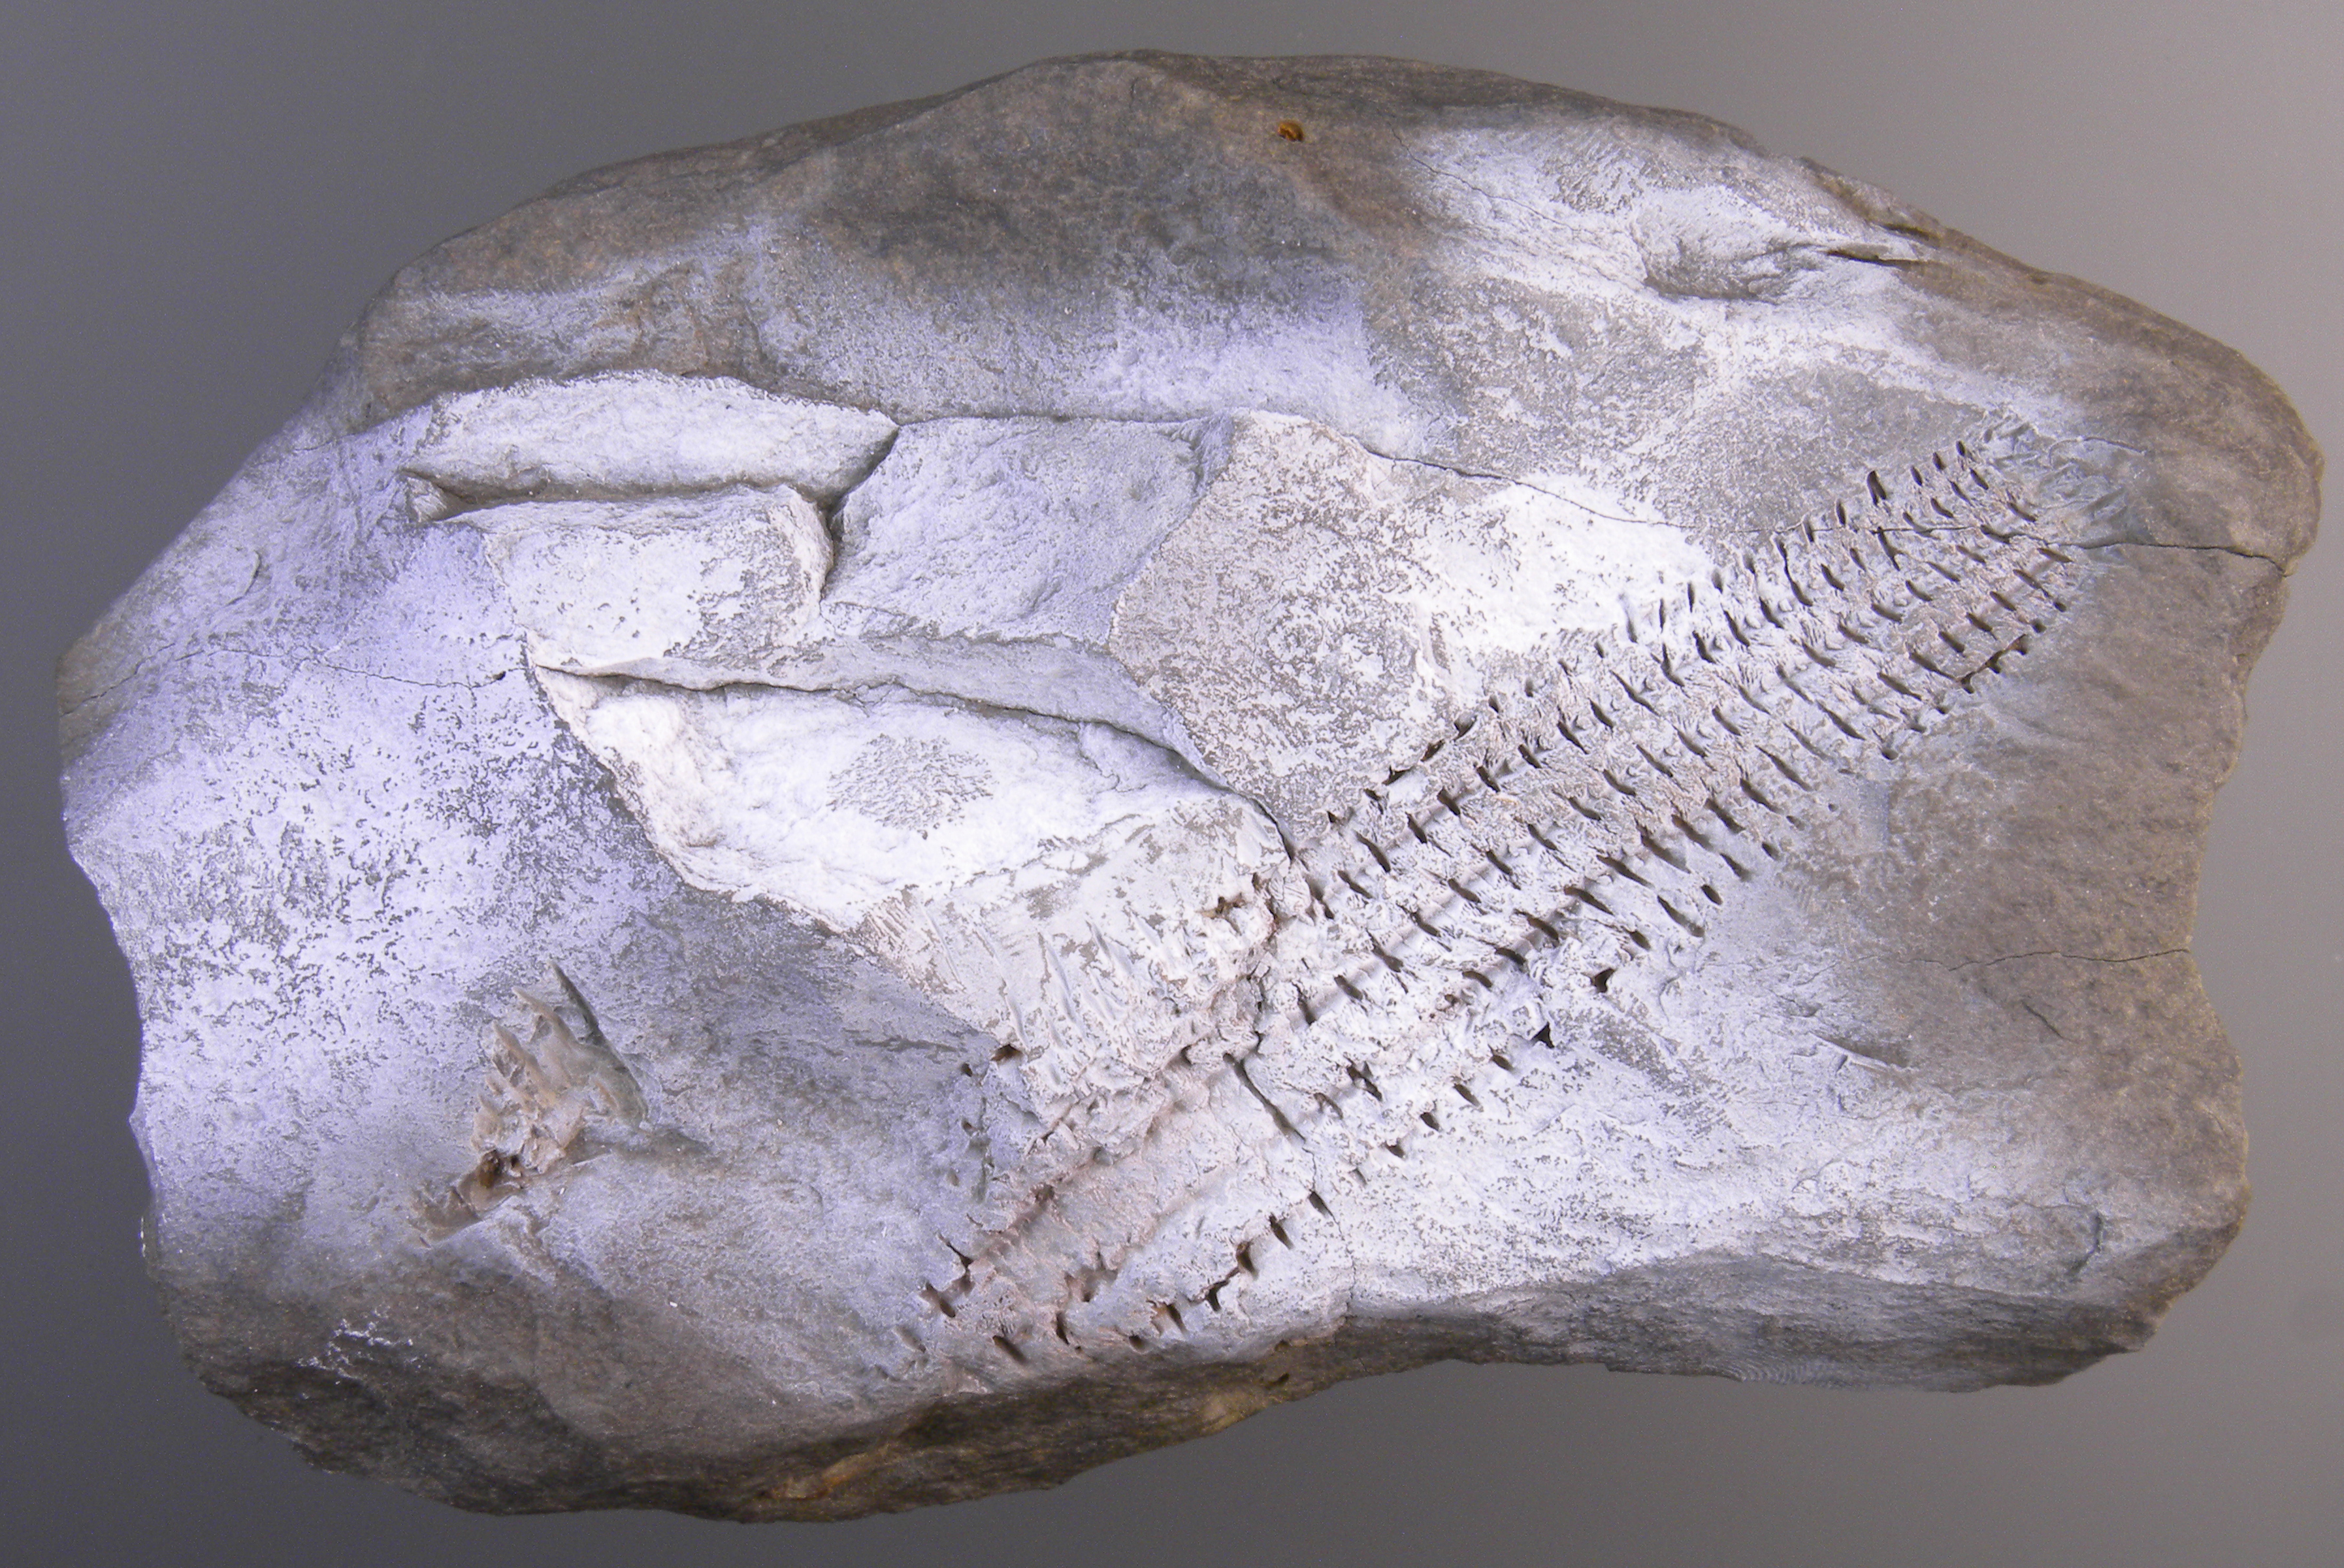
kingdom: Animalia
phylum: Echinodermata
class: Crinoidea
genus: Gastrocrinus
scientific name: Gastrocrinus
